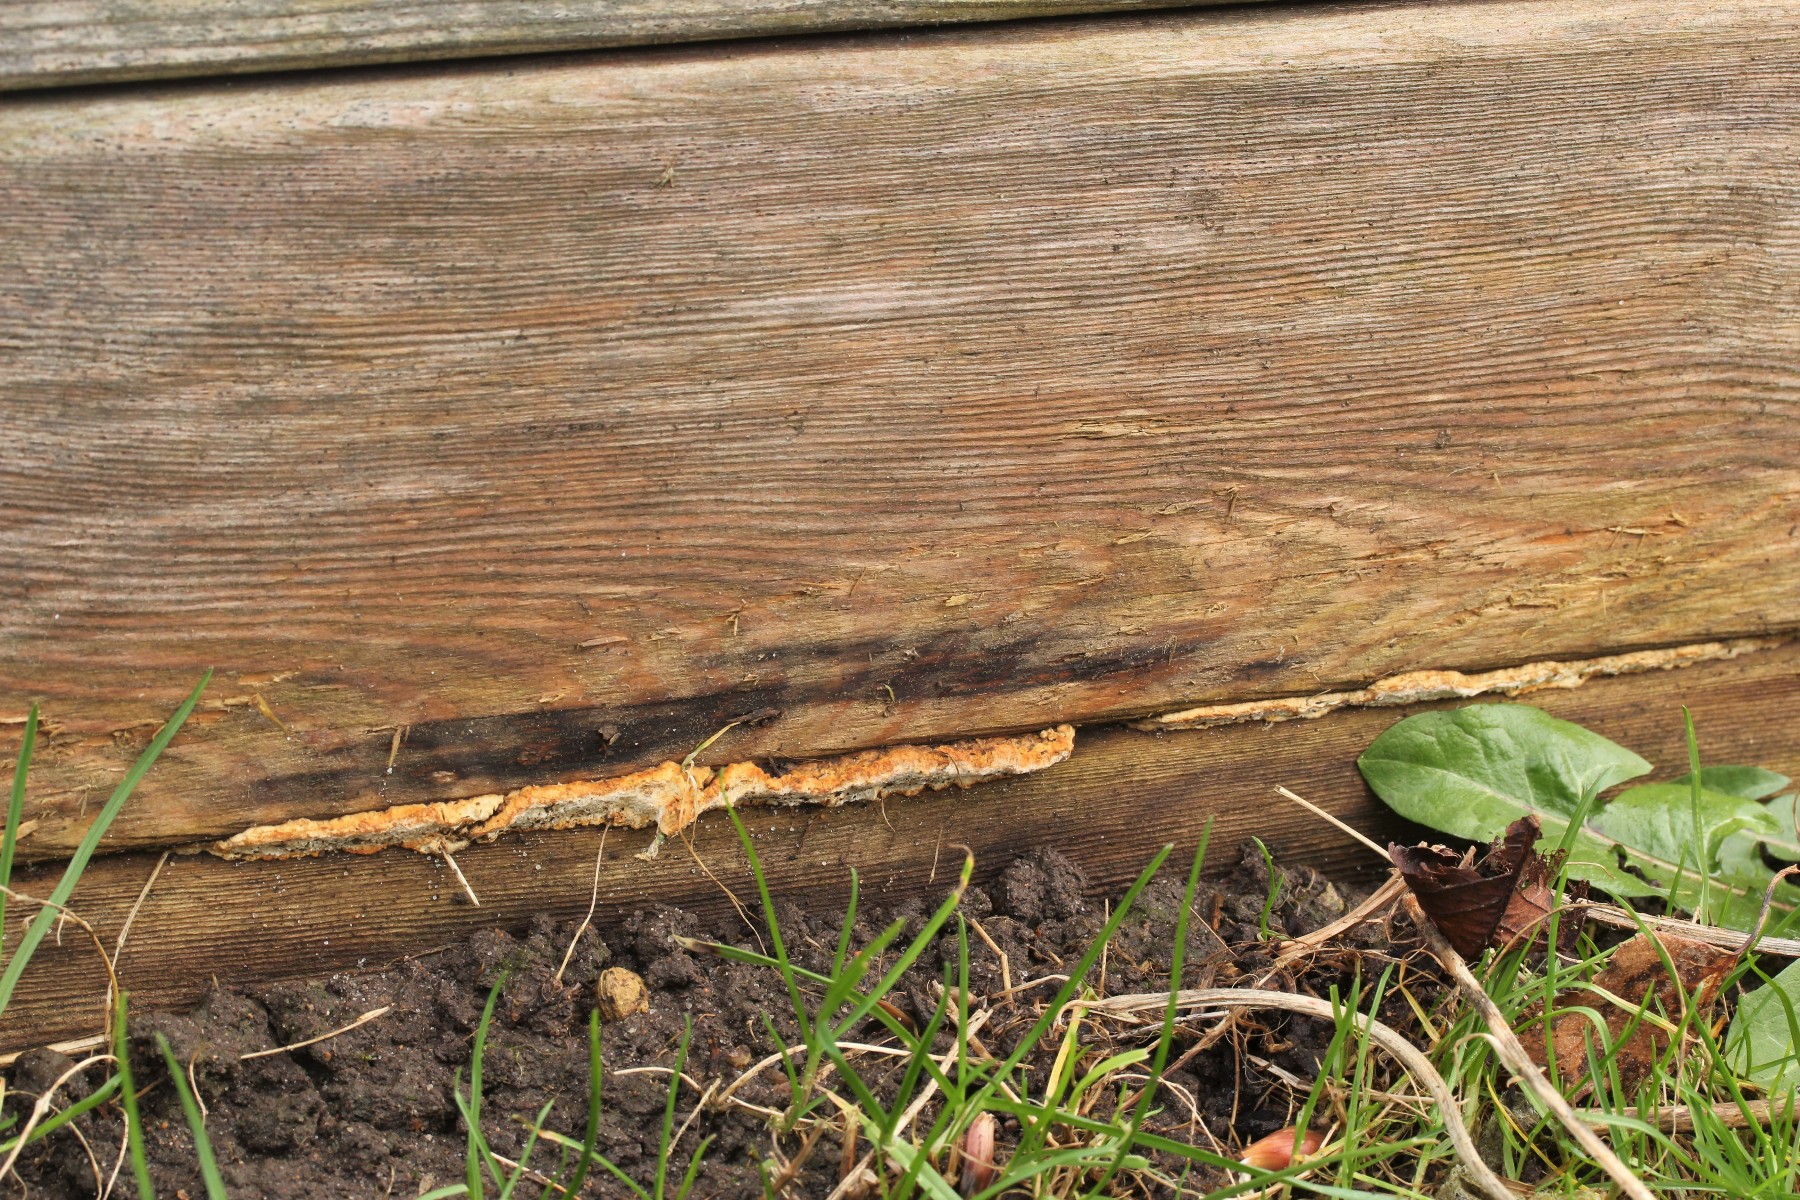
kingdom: Fungi
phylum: Basidiomycota
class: Agaricomycetes
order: Polyporales
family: Fomitopsidaceae
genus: Neoantrodia
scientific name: Neoantrodia serialis
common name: række-sejporesvamp
